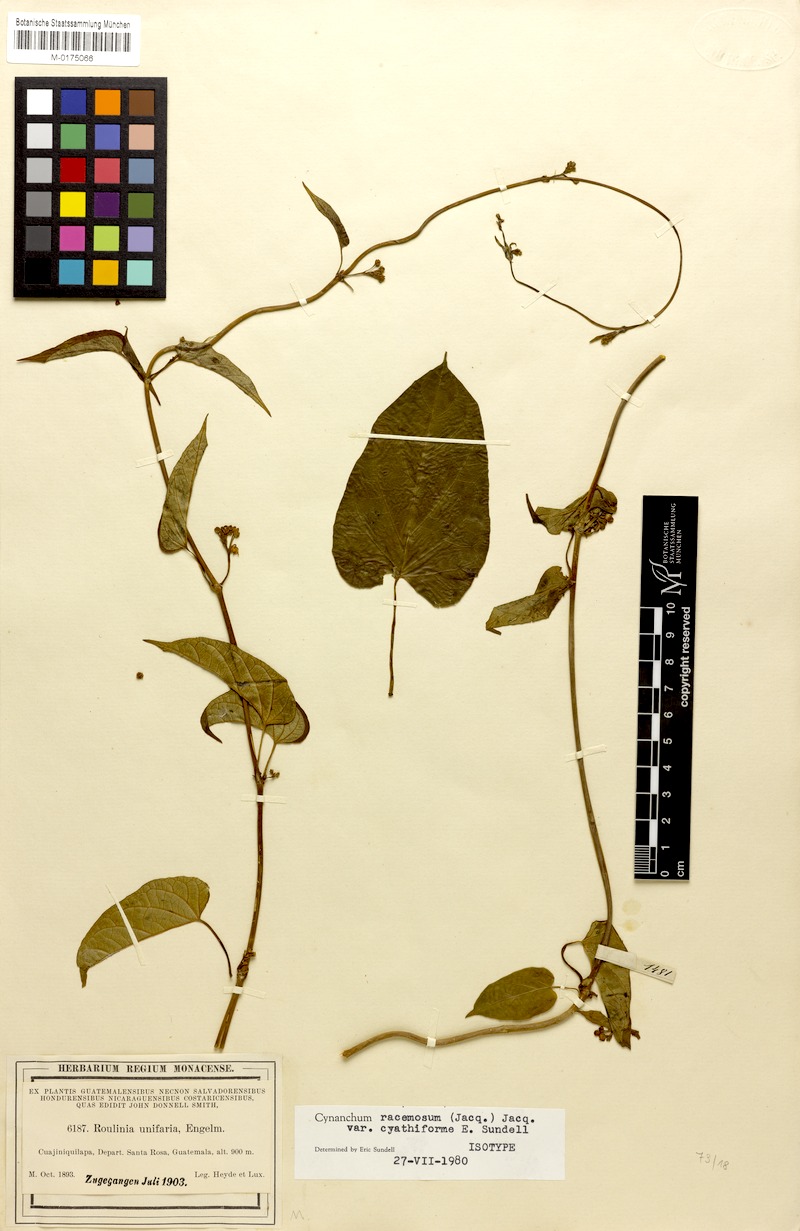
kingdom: Plantae
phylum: Tracheophyta
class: Magnoliopsida
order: Gentianales
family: Apocynaceae
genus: Cynanchum
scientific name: Cynanchum cyathiforme
